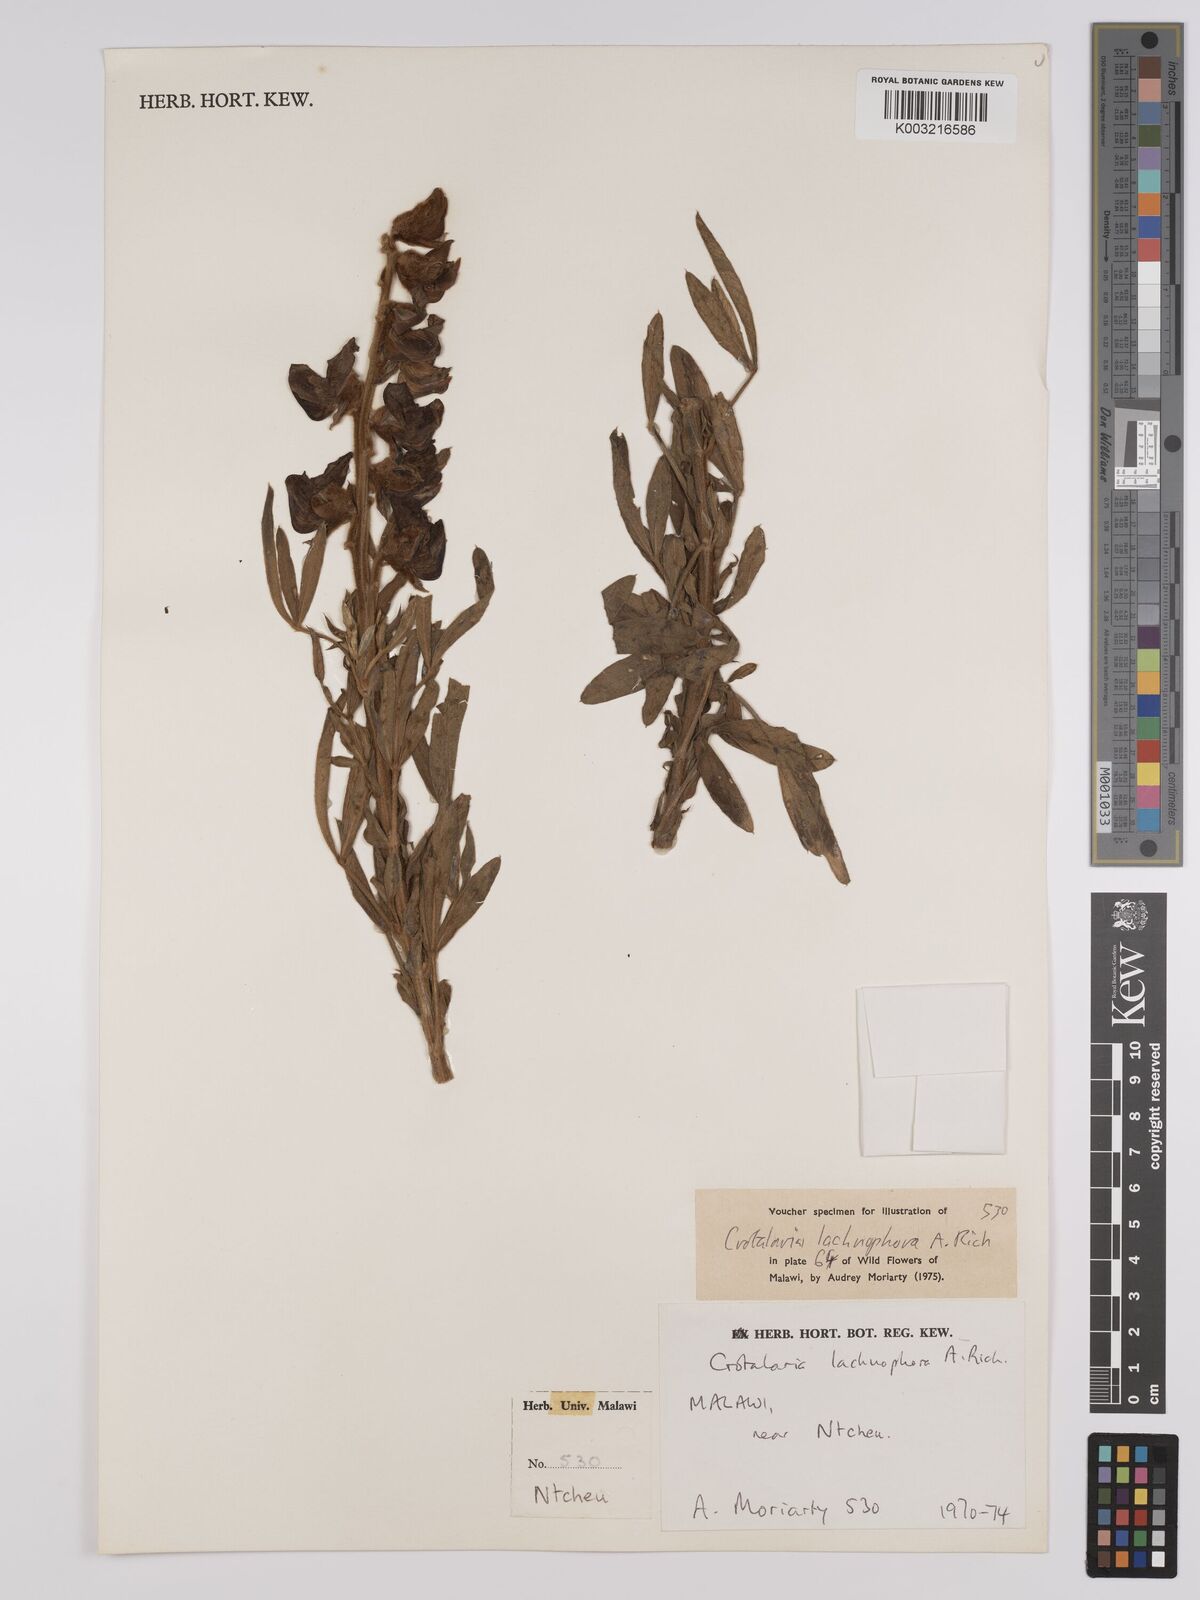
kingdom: Plantae
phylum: Tracheophyta
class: Magnoliopsida
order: Fabales
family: Fabaceae
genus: Crotalaria
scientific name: Crotalaria lachnophora
